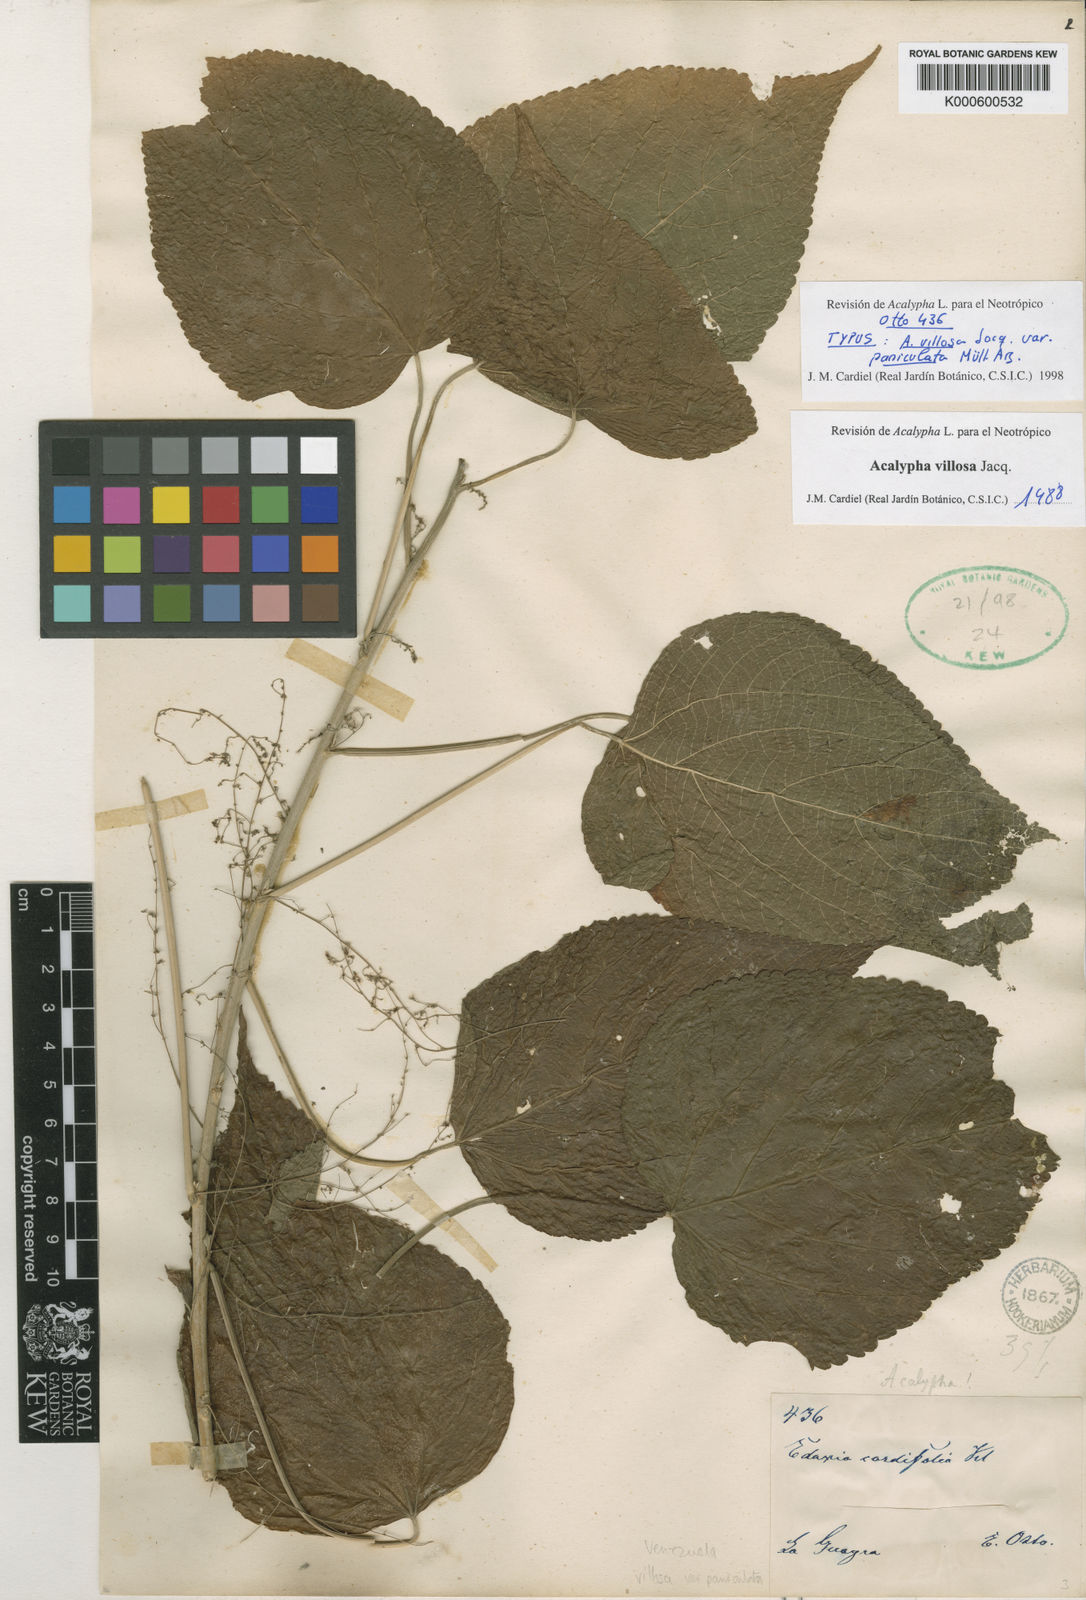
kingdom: Plantae
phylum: Tracheophyta
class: Magnoliopsida
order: Malpighiales
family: Euphorbiaceae
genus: Acalypha
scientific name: Acalypha villosa
